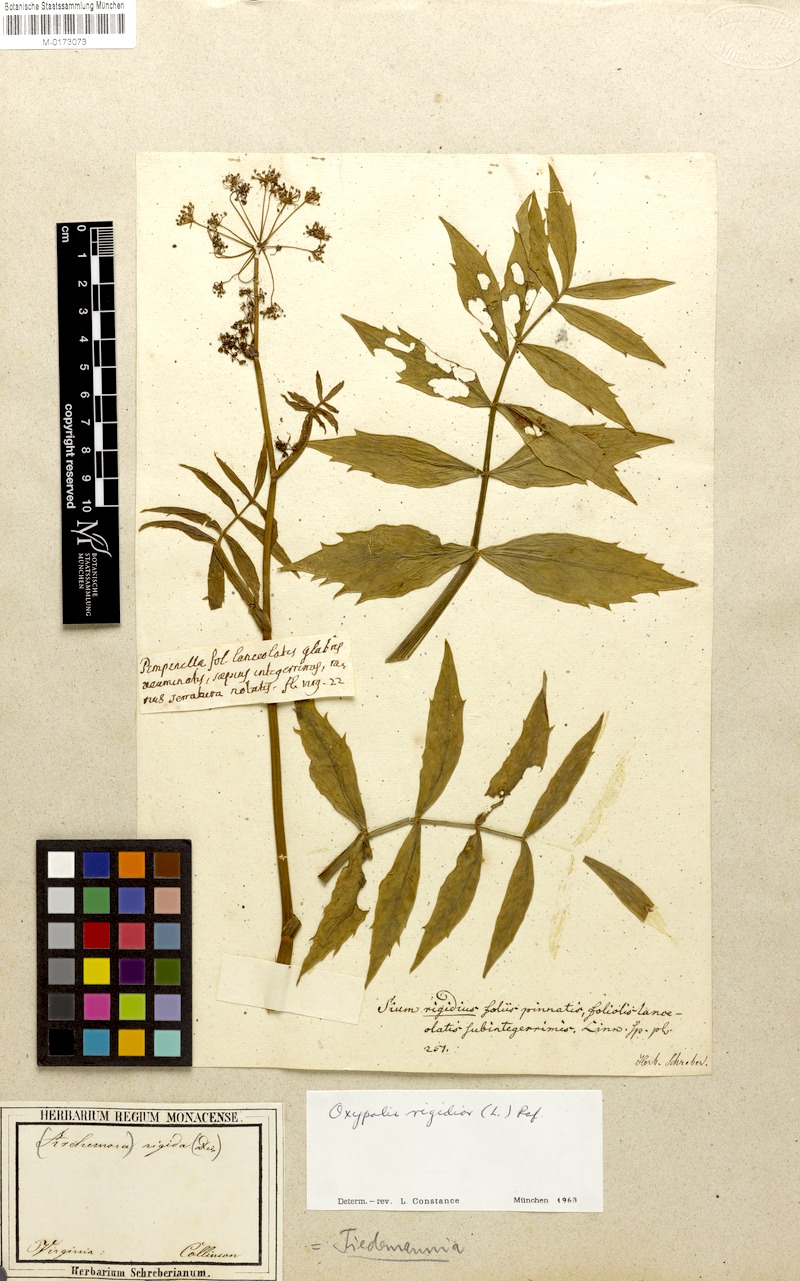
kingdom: Plantae
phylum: Tracheophyta
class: Magnoliopsida
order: Apiales
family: Apiaceae
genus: Oxypolis
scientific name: Oxypolis rigidior
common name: Cowbane
